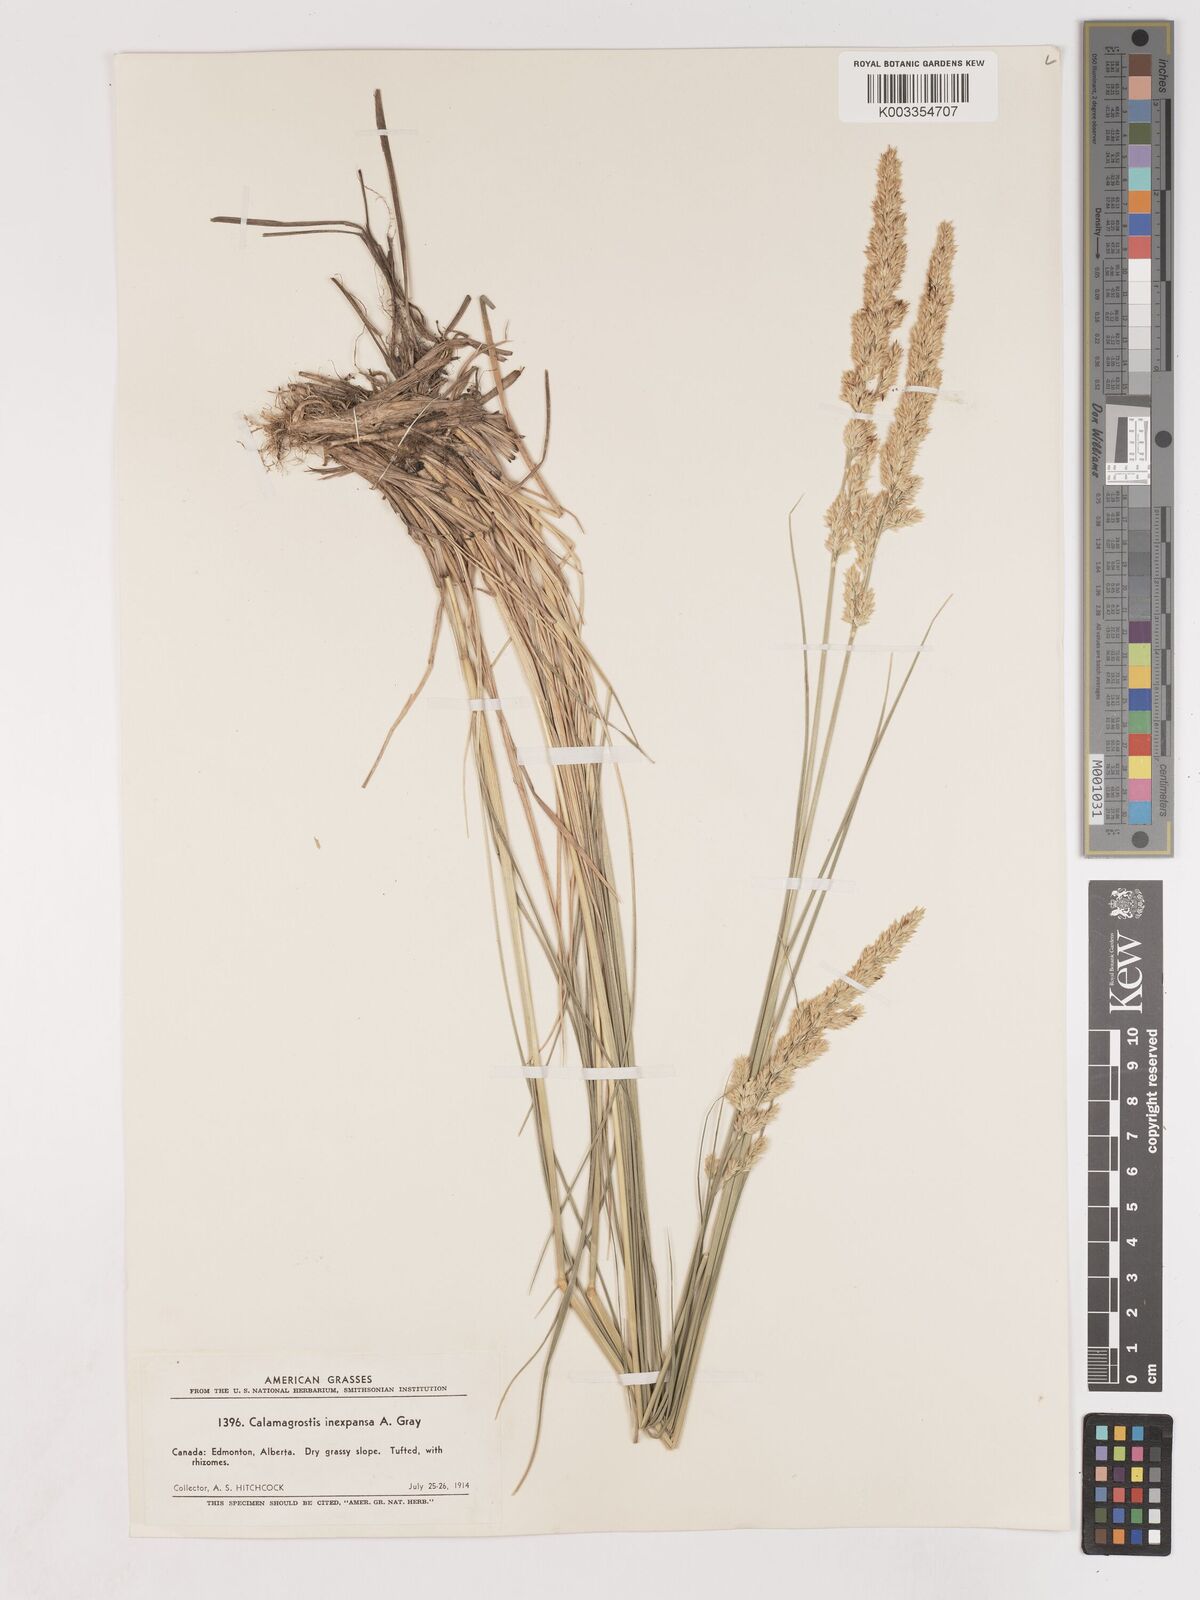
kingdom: Plantae
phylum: Tracheophyta
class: Liliopsida
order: Poales
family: Poaceae
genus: Cinnagrostis
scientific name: Cinnagrostis recta
